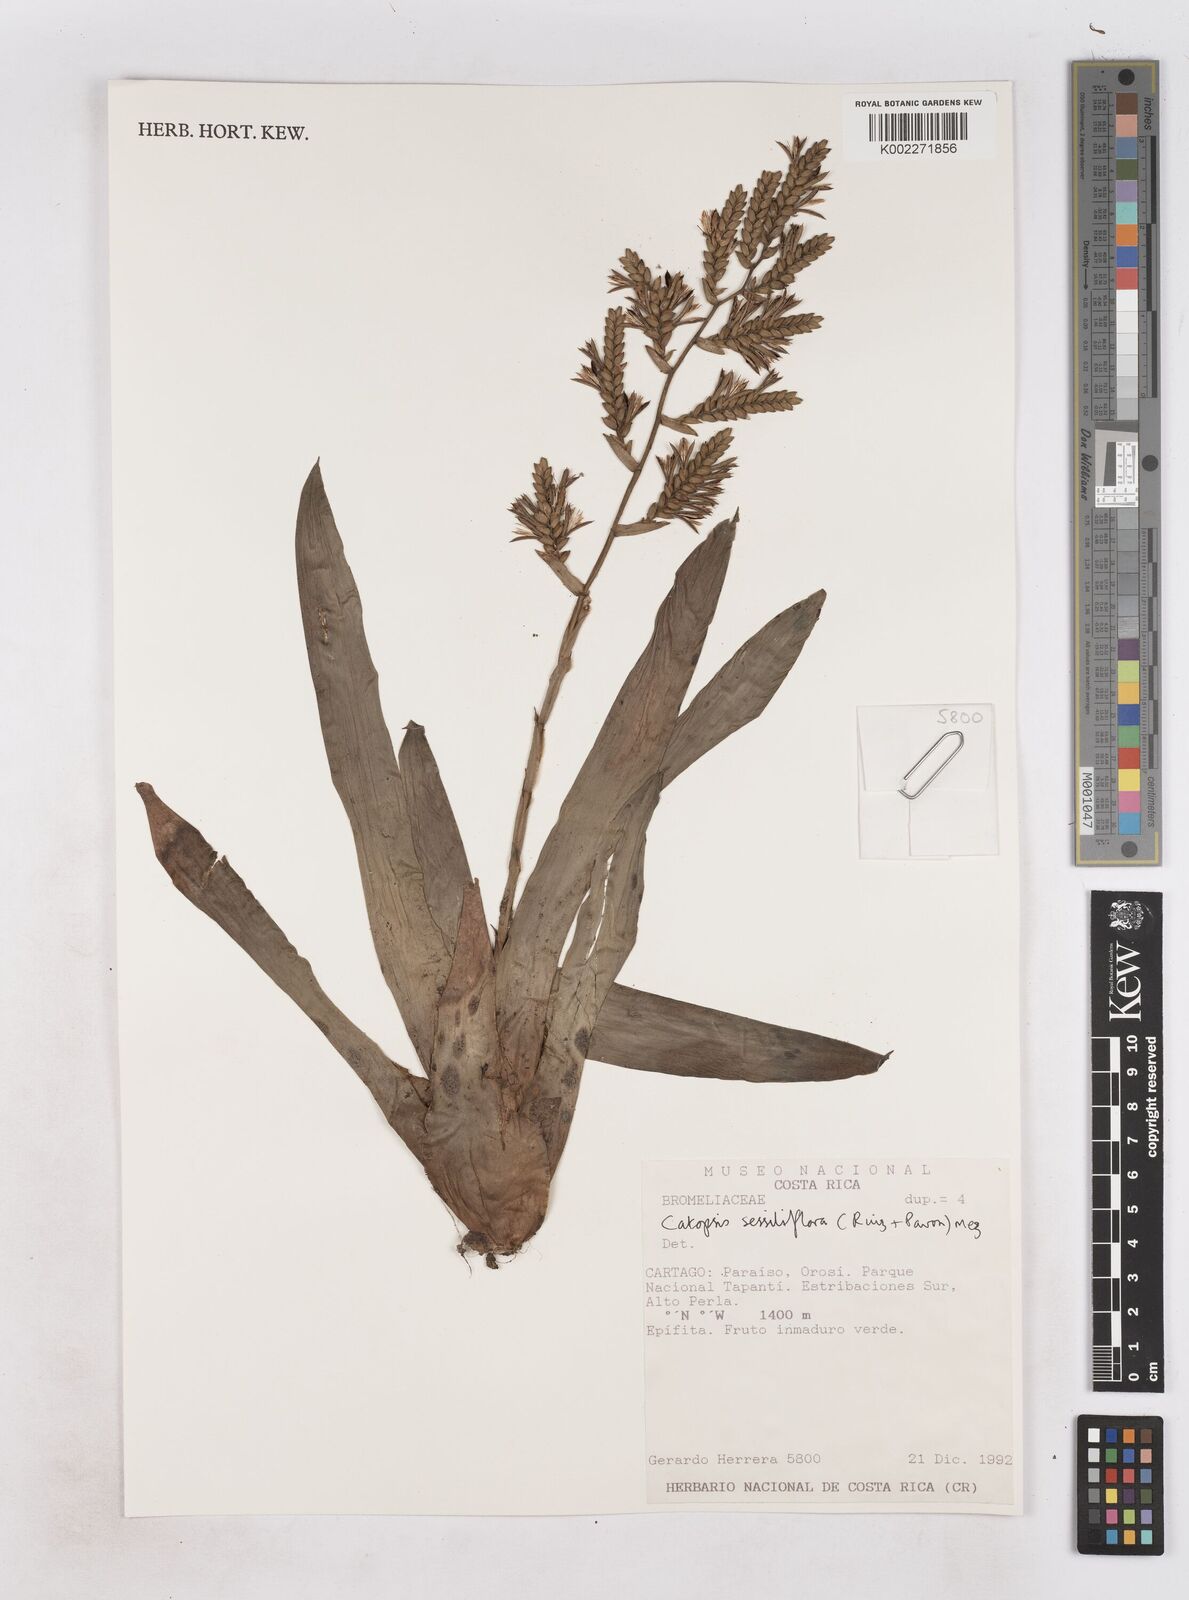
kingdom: Plantae
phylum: Tracheophyta
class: Liliopsida
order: Poales
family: Bromeliaceae
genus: Catopsis
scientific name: Catopsis sessiliflora
